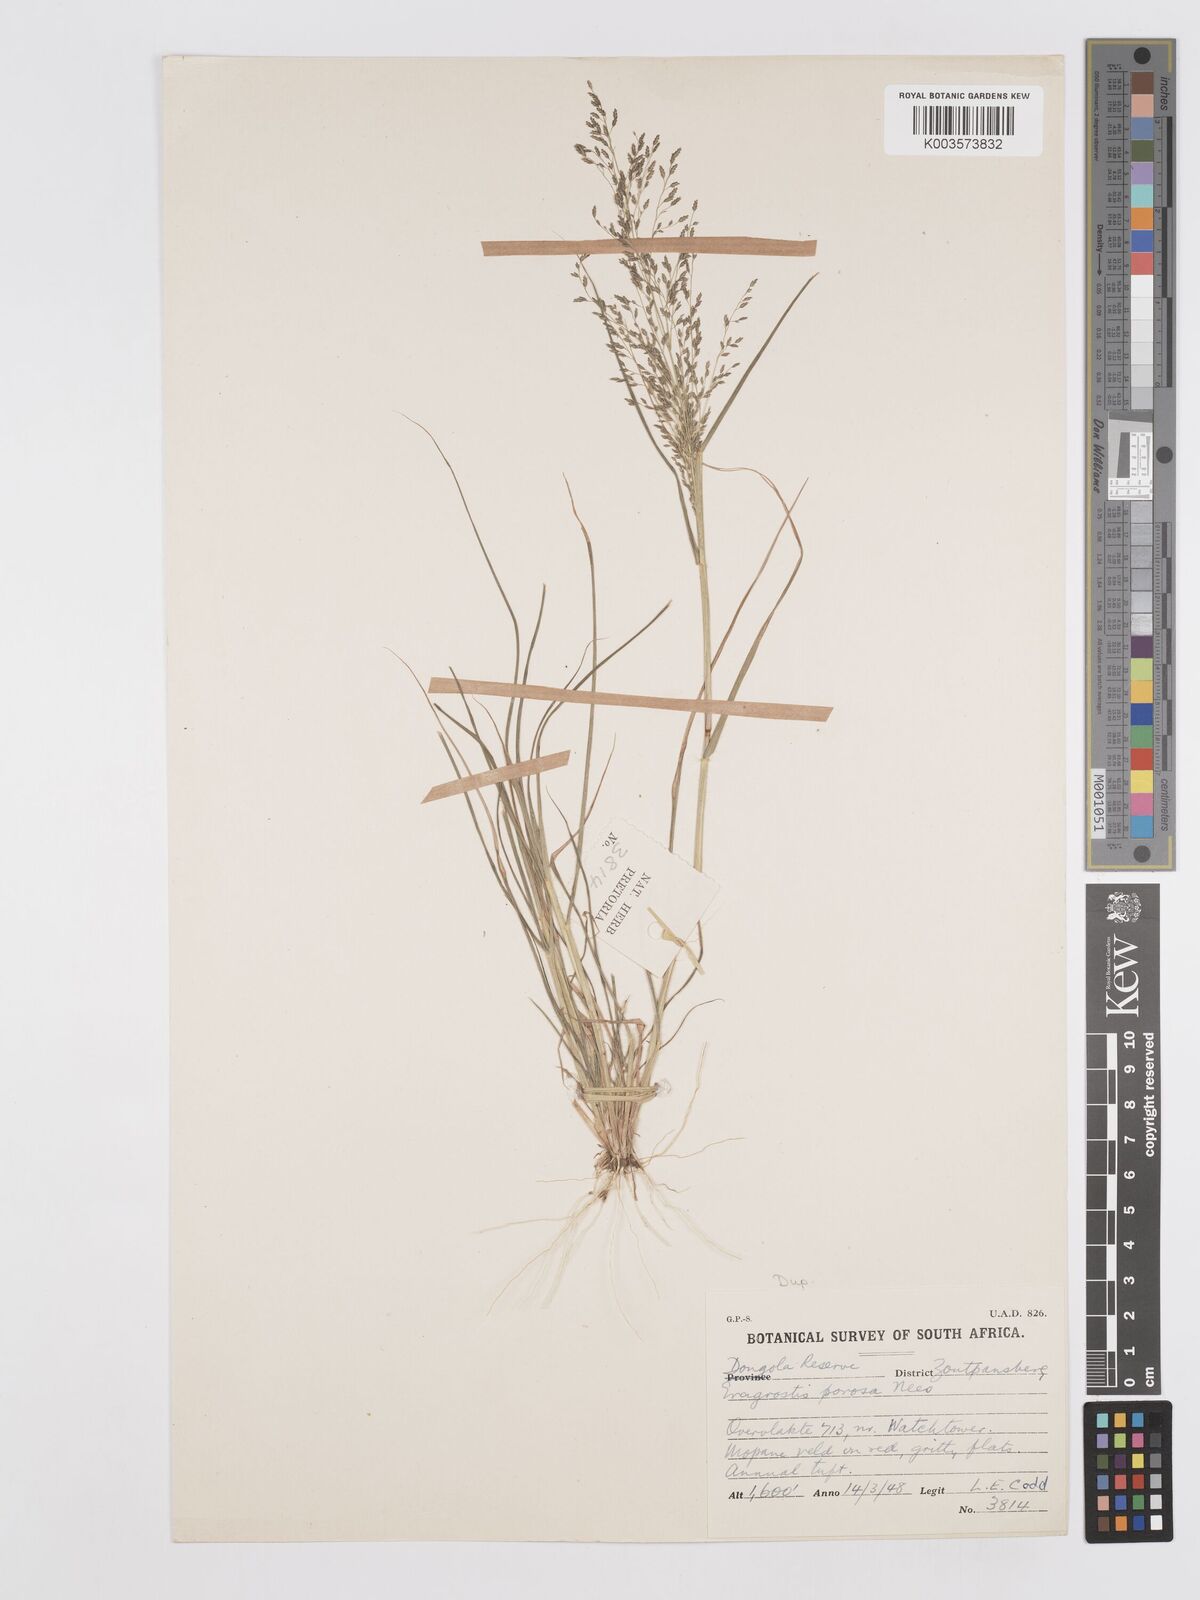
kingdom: Plantae
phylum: Tracheophyta
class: Liliopsida
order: Poales
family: Poaceae
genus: Eragrostis
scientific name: Eragrostis porosa
